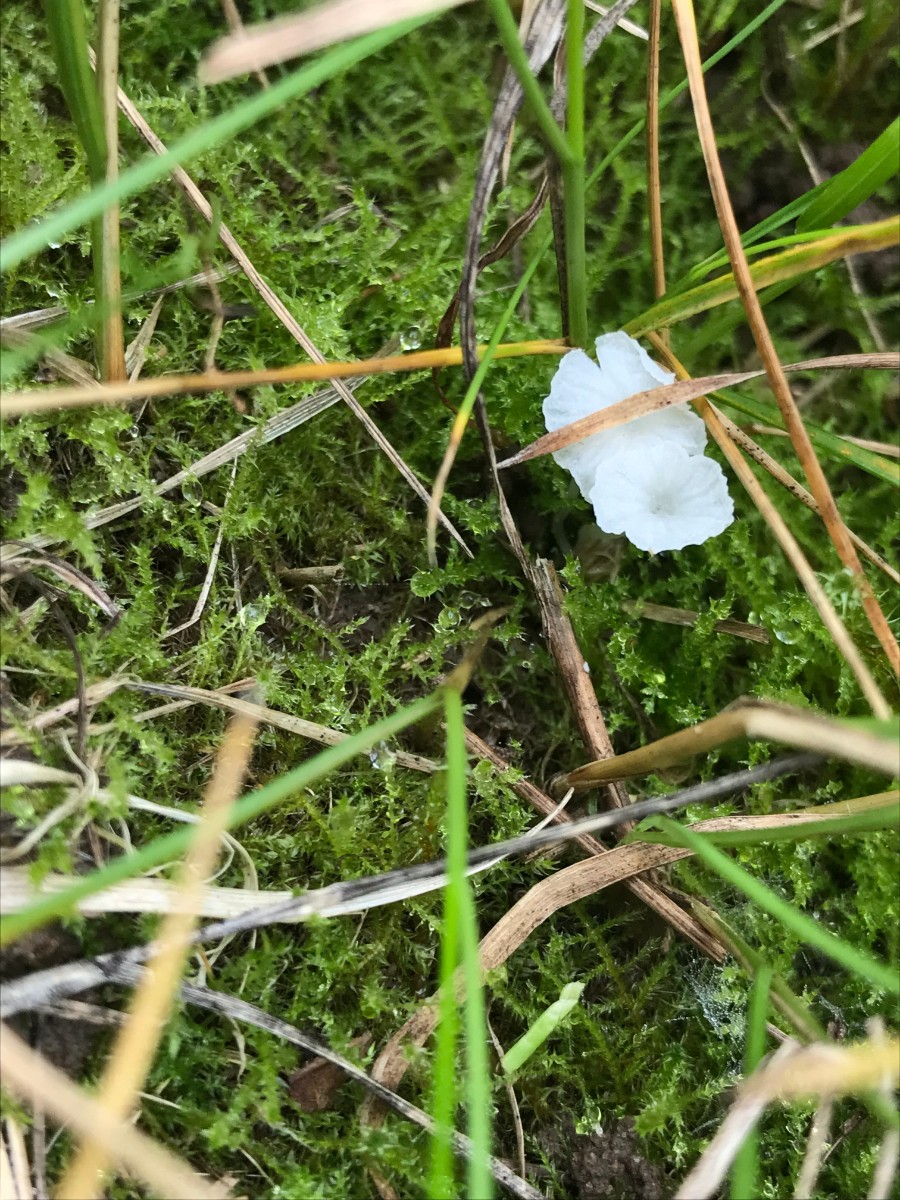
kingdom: Fungi
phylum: Basidiomycota
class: Agaricomycetes
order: Agaricales
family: Mycenaceae
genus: Hemimycena
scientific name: Hemimycena epichloe
